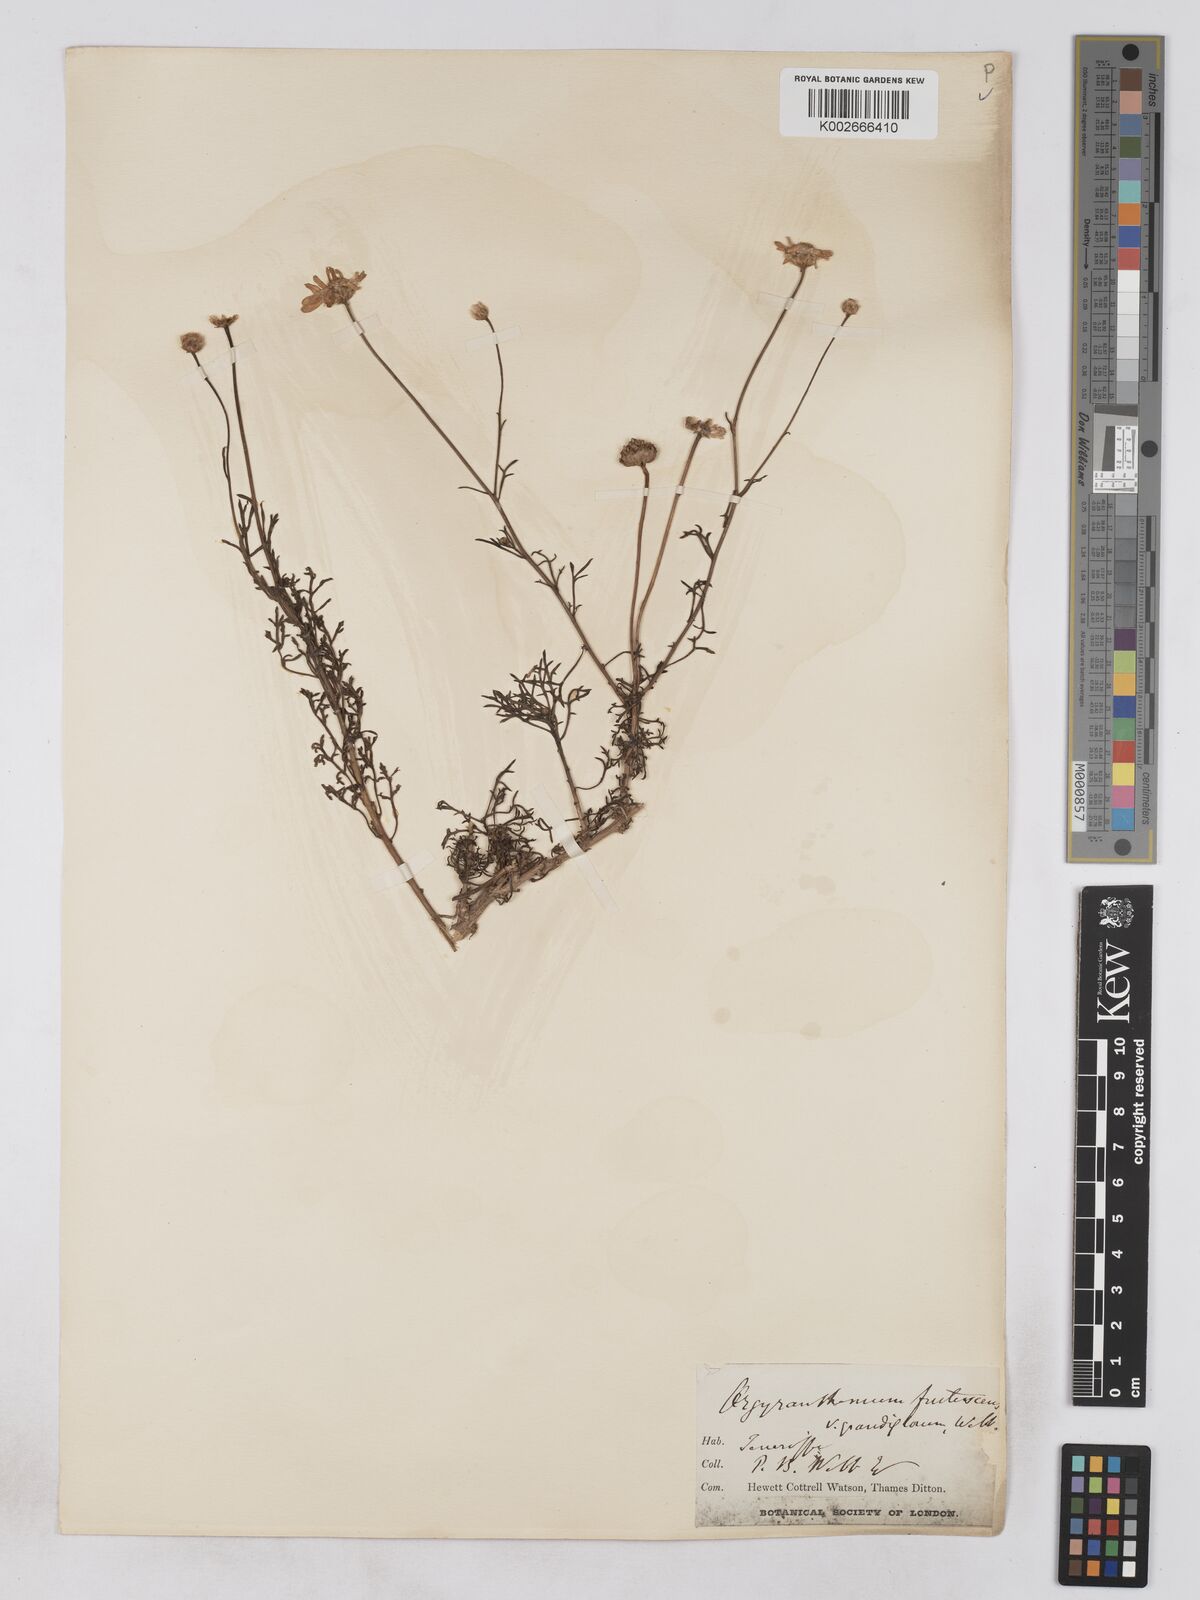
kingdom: Plantae
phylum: Tracheophyta
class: Magnoliopsida
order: Asterales
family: Asteraceae
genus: Argyranthemum
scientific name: Argyranthemum frutescens
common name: Paris daisy
